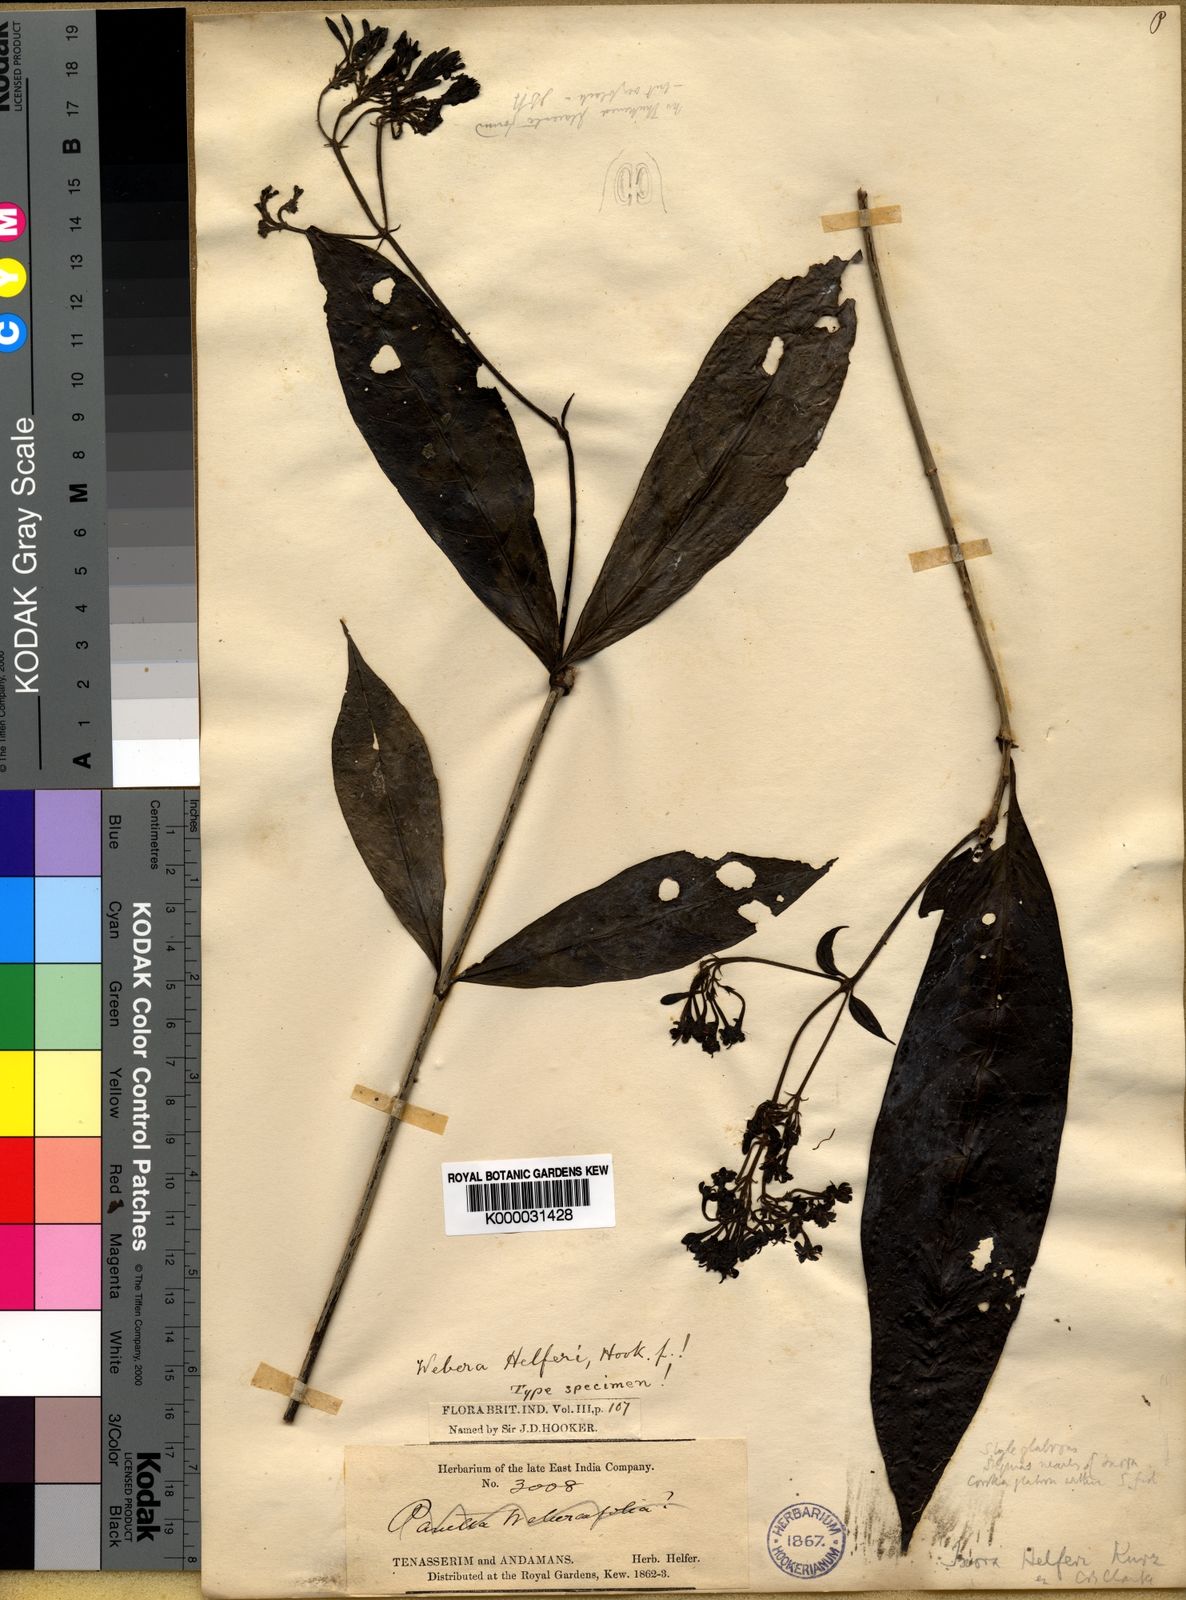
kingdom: Plantae
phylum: Tracheophyta
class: Magnoliopsida
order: Gentianales
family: Rubiaceae
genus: Tarenna
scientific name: Tarenna campaniflora
